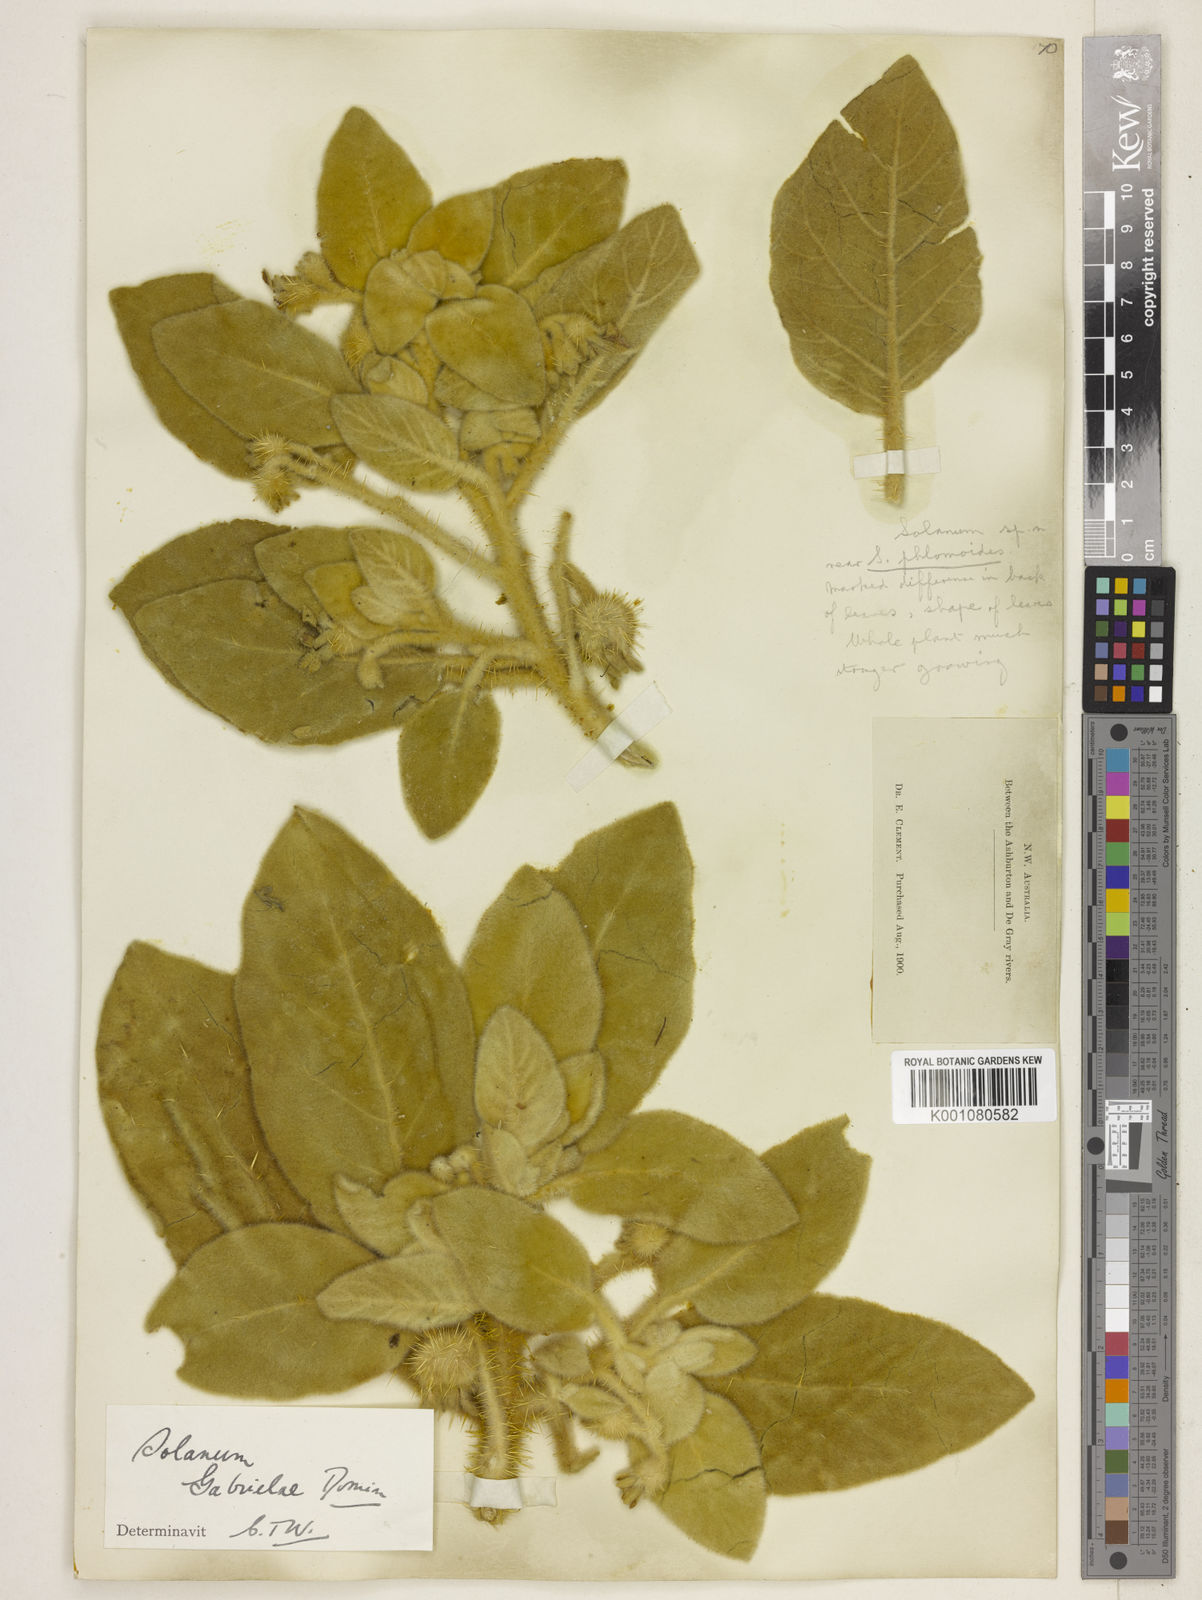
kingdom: Plantae
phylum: Tracheophyta
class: Magnoliopsida
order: Solanales
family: Solanaceae
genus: Solanum
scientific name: Solanum gabrielae
